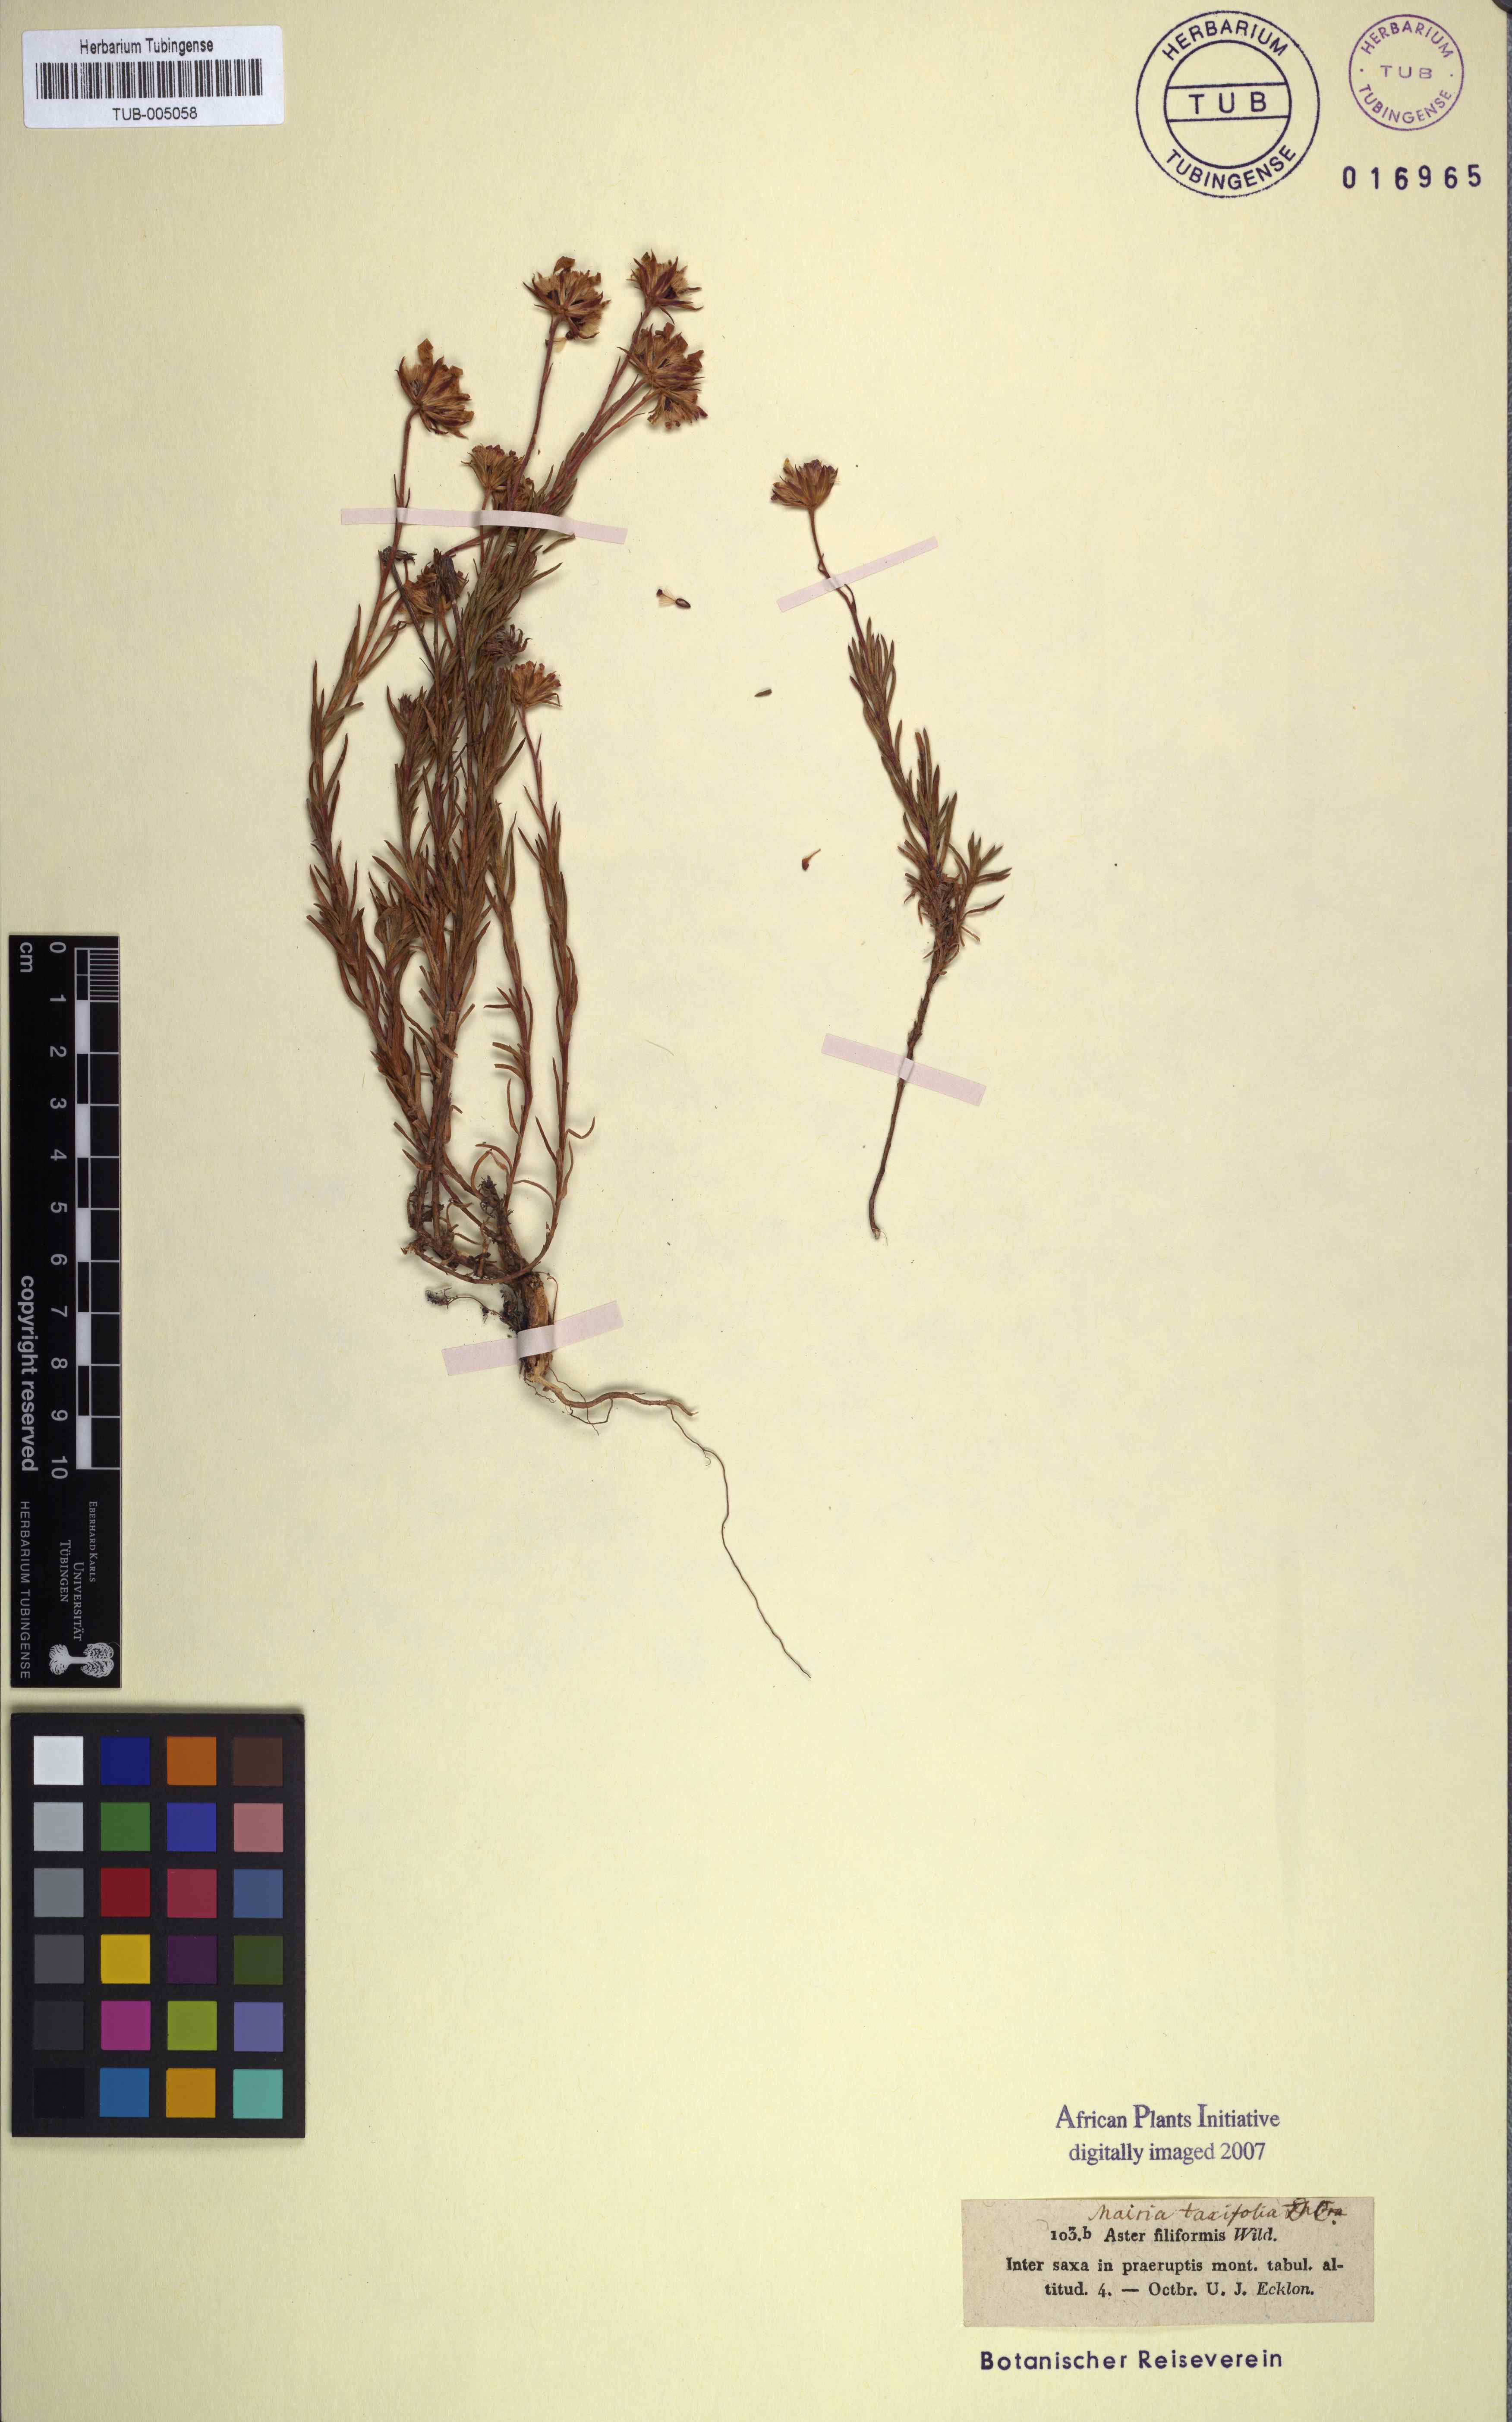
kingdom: Plantae
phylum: Tracheophyta
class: Magnoliopsida
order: Asterales
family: Asteraceae
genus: Zyrphelis
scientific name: Zyrphelis taxifolia
